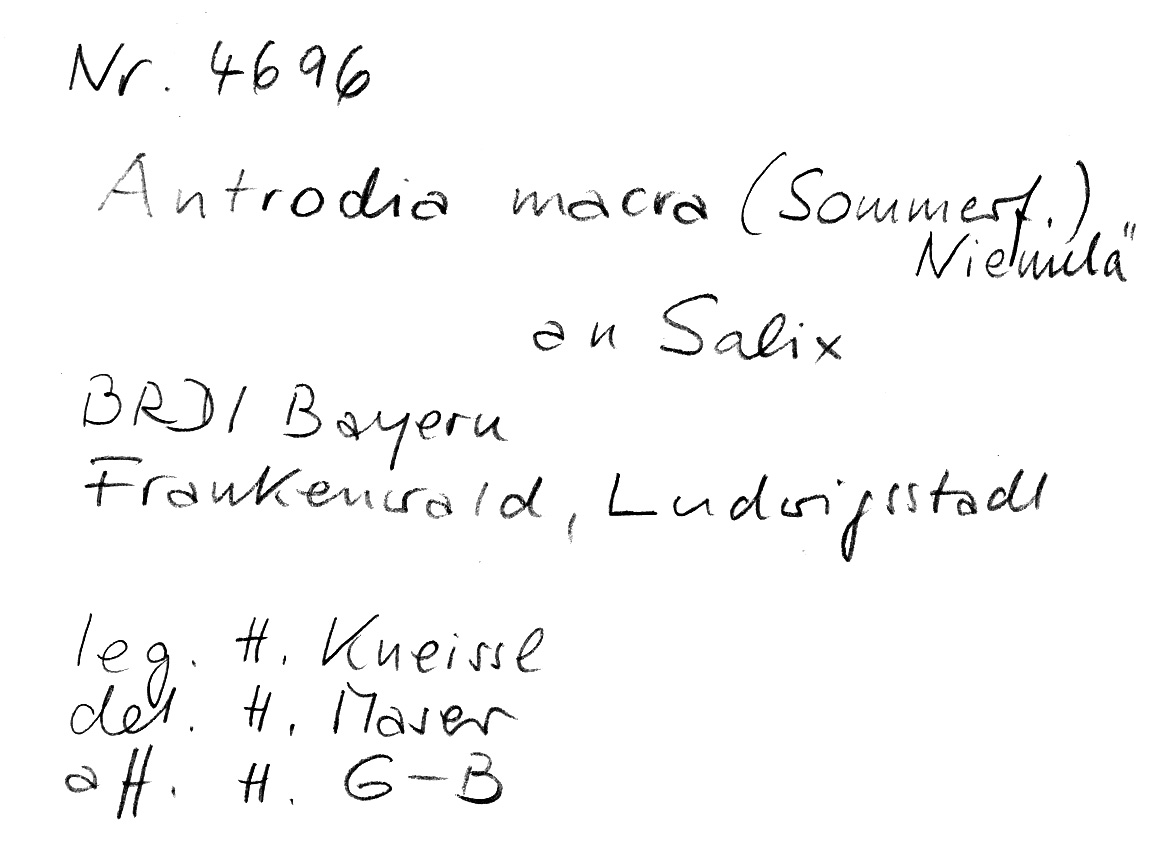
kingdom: Fungi
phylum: Basidiomycota
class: Agaricomycetes
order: Polyporales
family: Fomitopsidaceae
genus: Antrodia
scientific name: Antrodia macra
